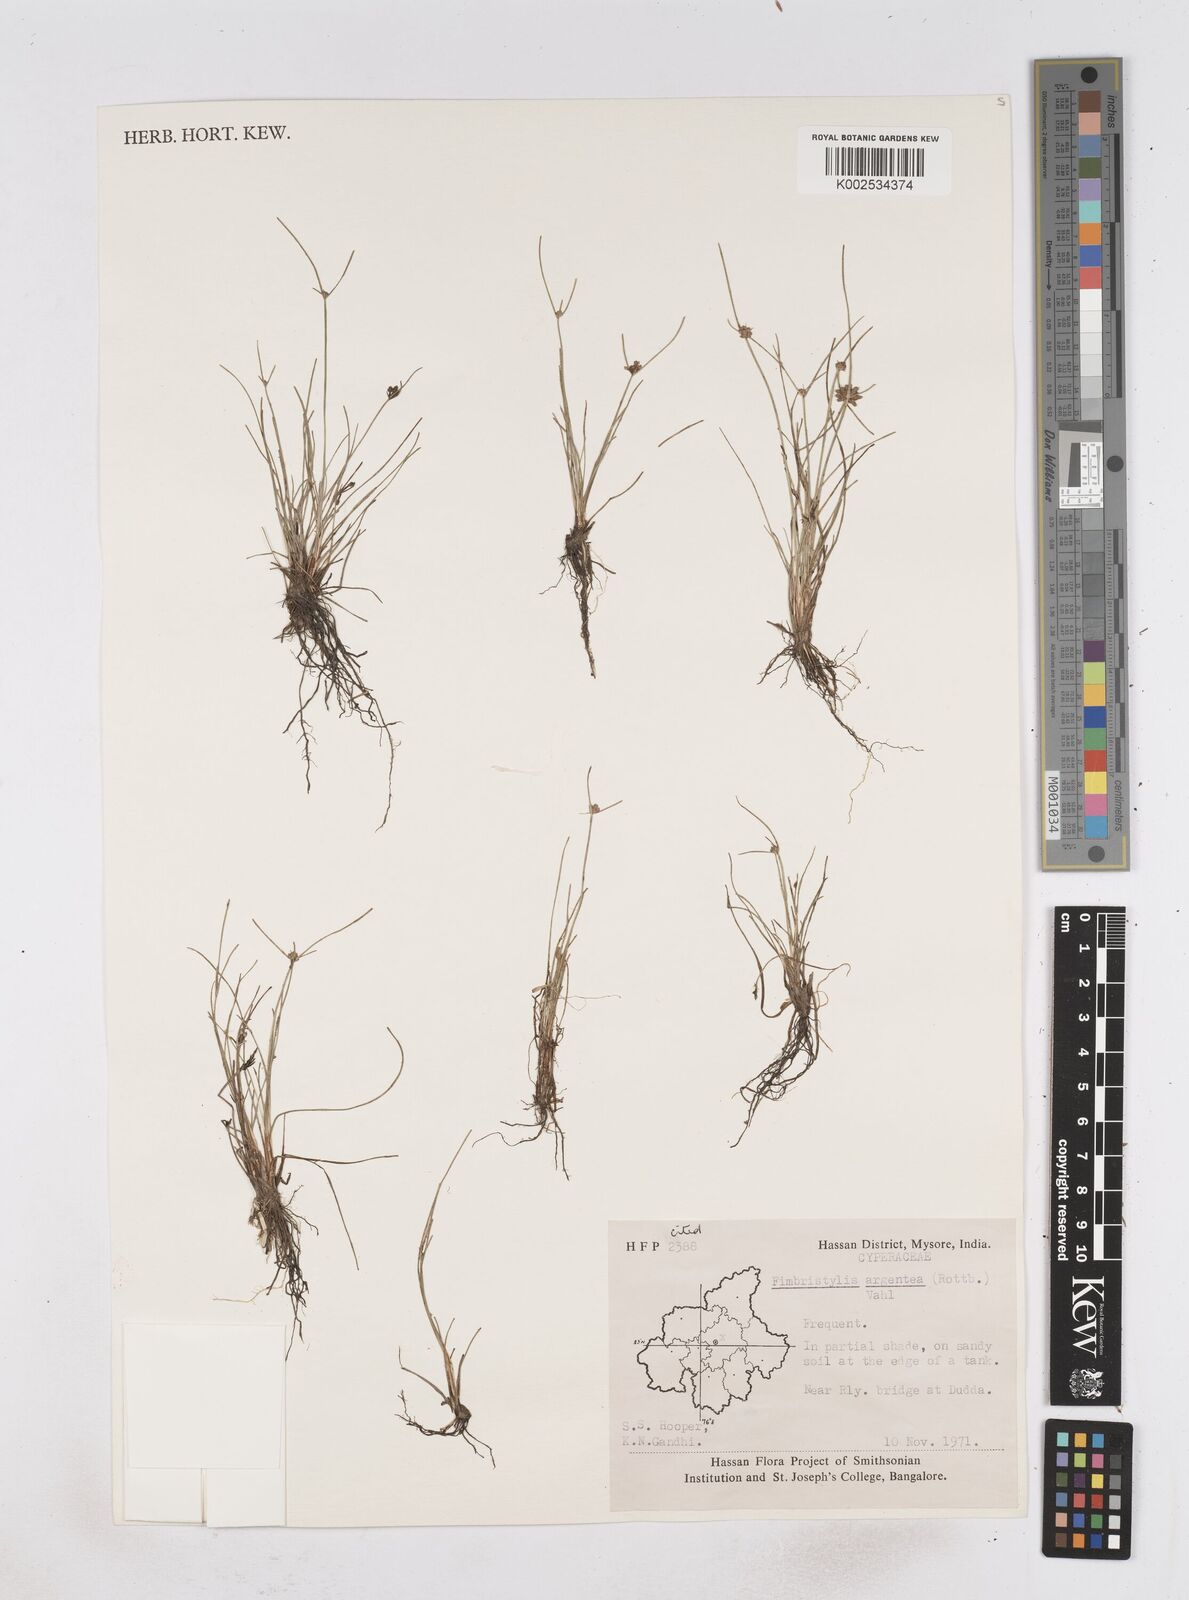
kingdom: Plantae
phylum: Tracheophyta
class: Liliopsida
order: Poales
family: Cyperaceae
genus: Fimbristylis
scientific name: Fimbristylis argentea
